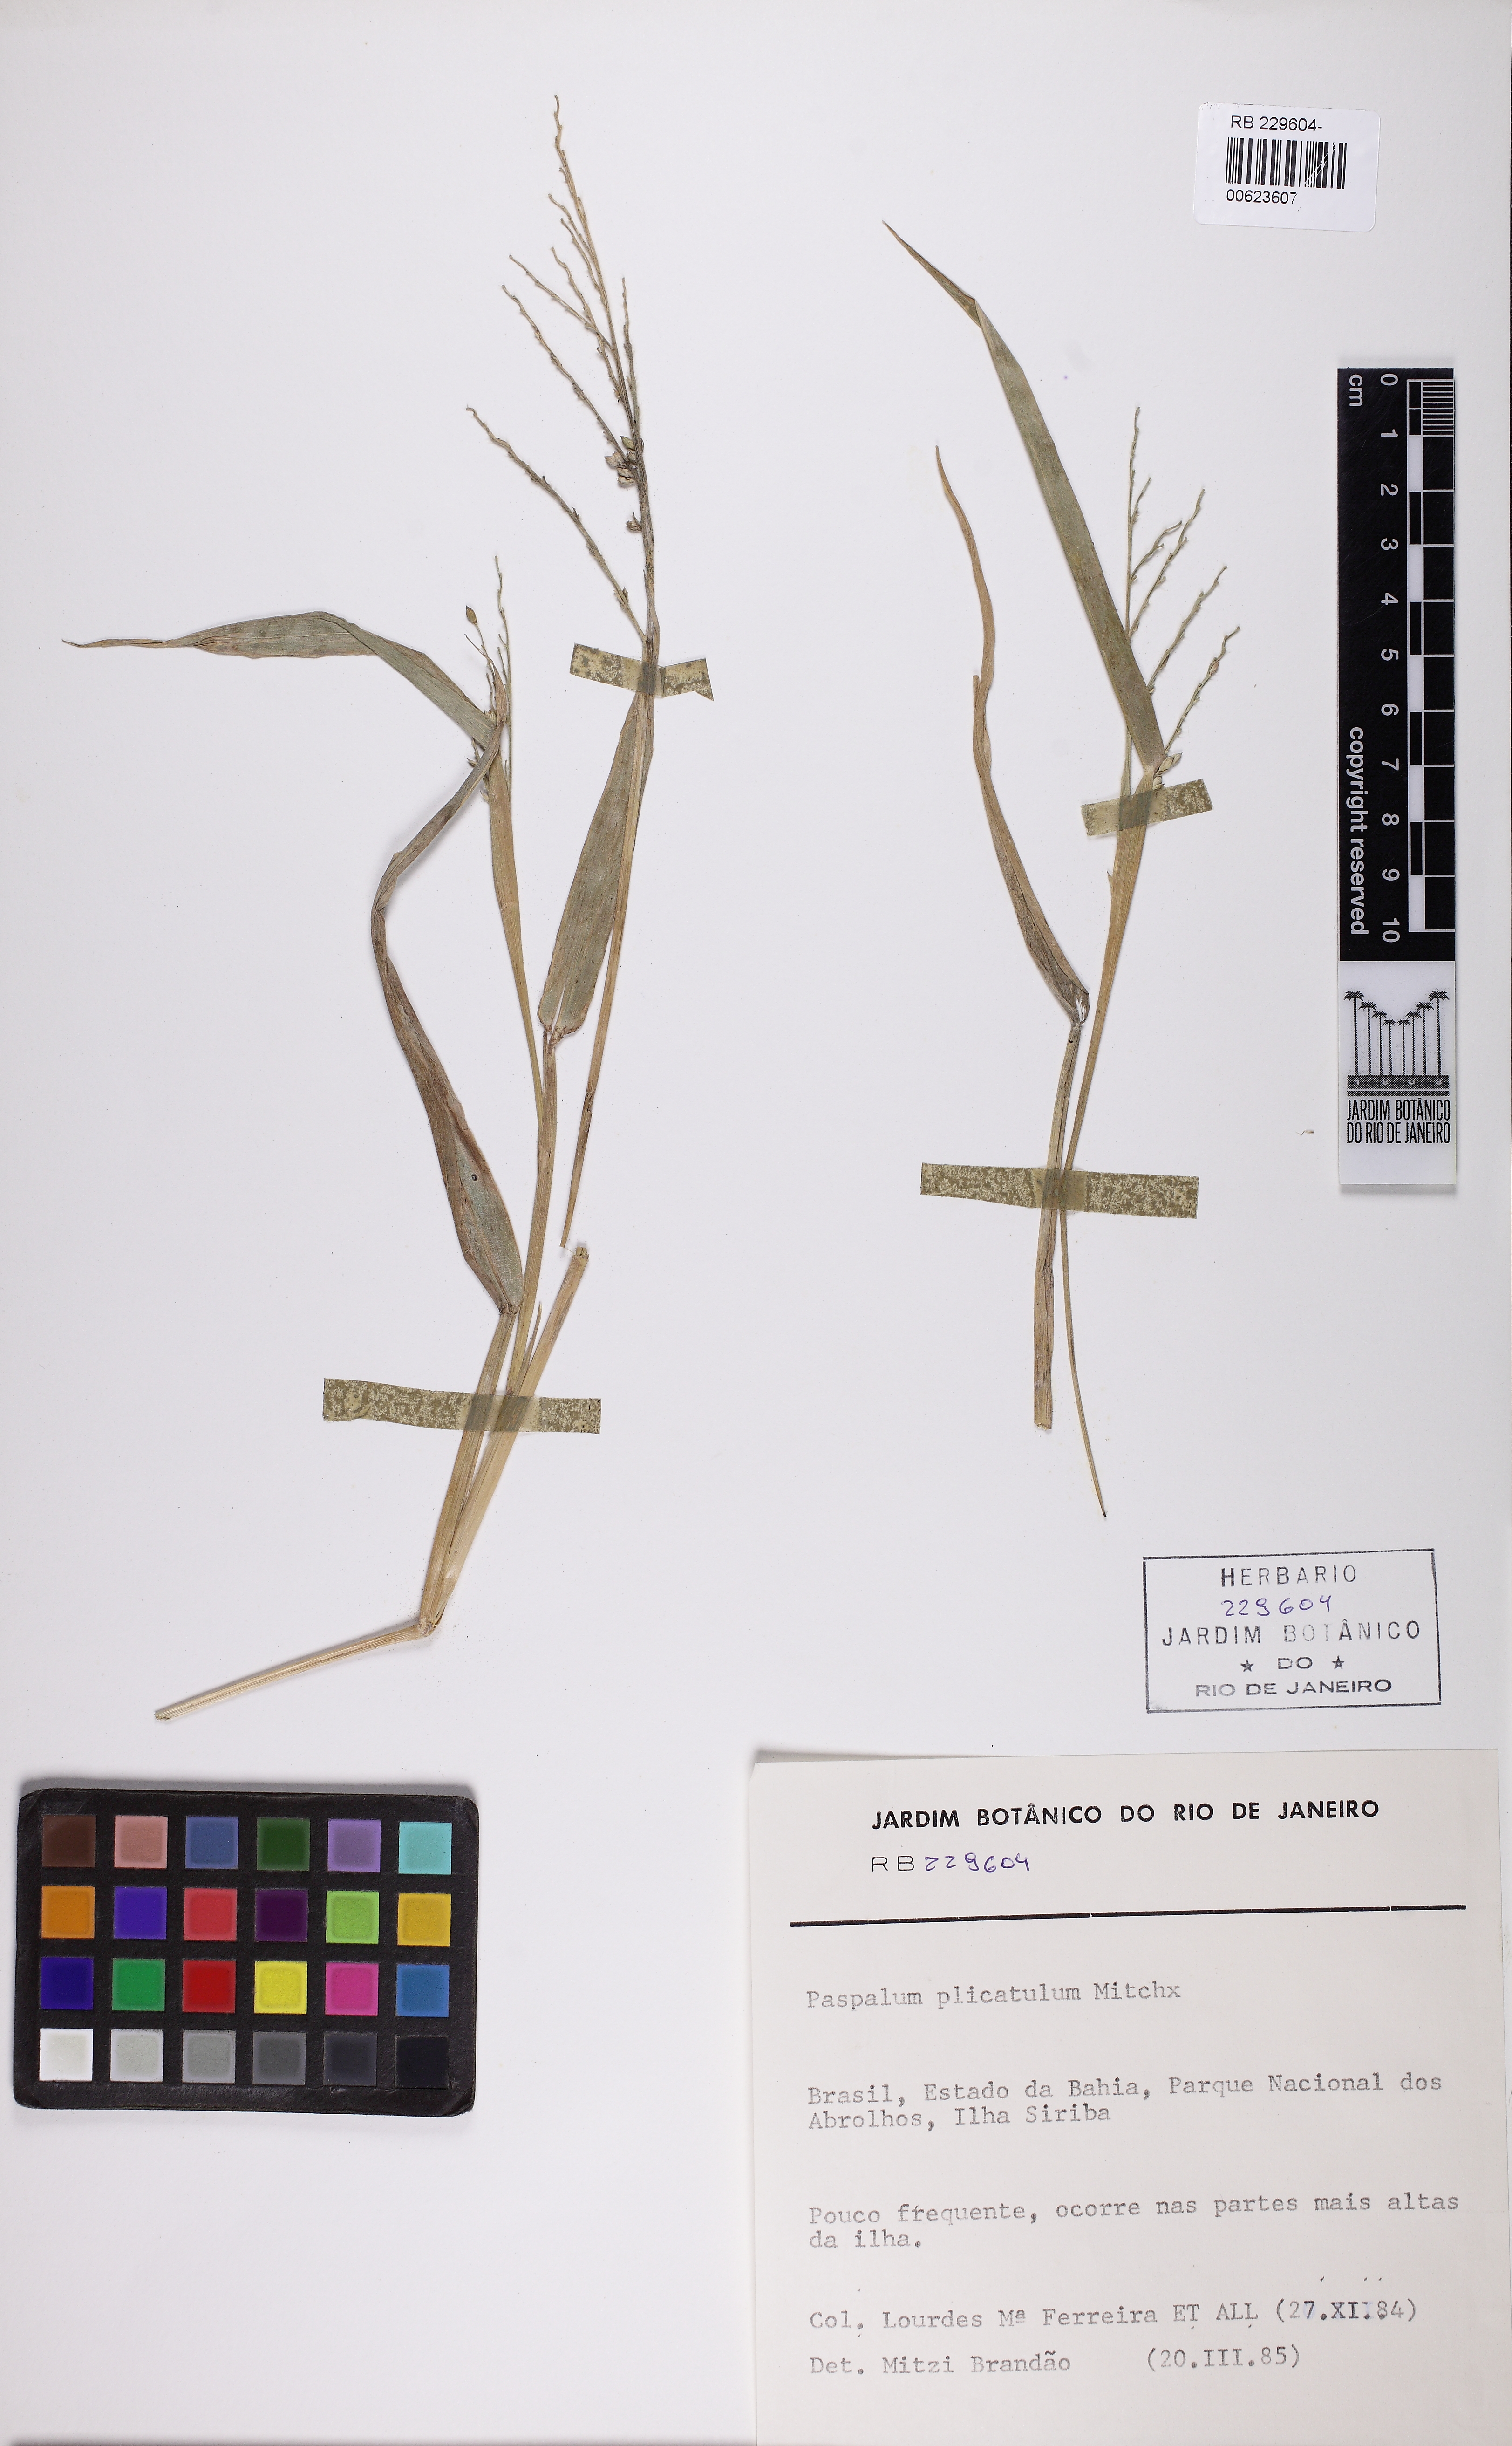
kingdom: Plantae
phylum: Tracheophyta
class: Liliopsida
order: Poales
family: Poaceae
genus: Paspalum
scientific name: Paspalum plicatulum
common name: Top paspalum
